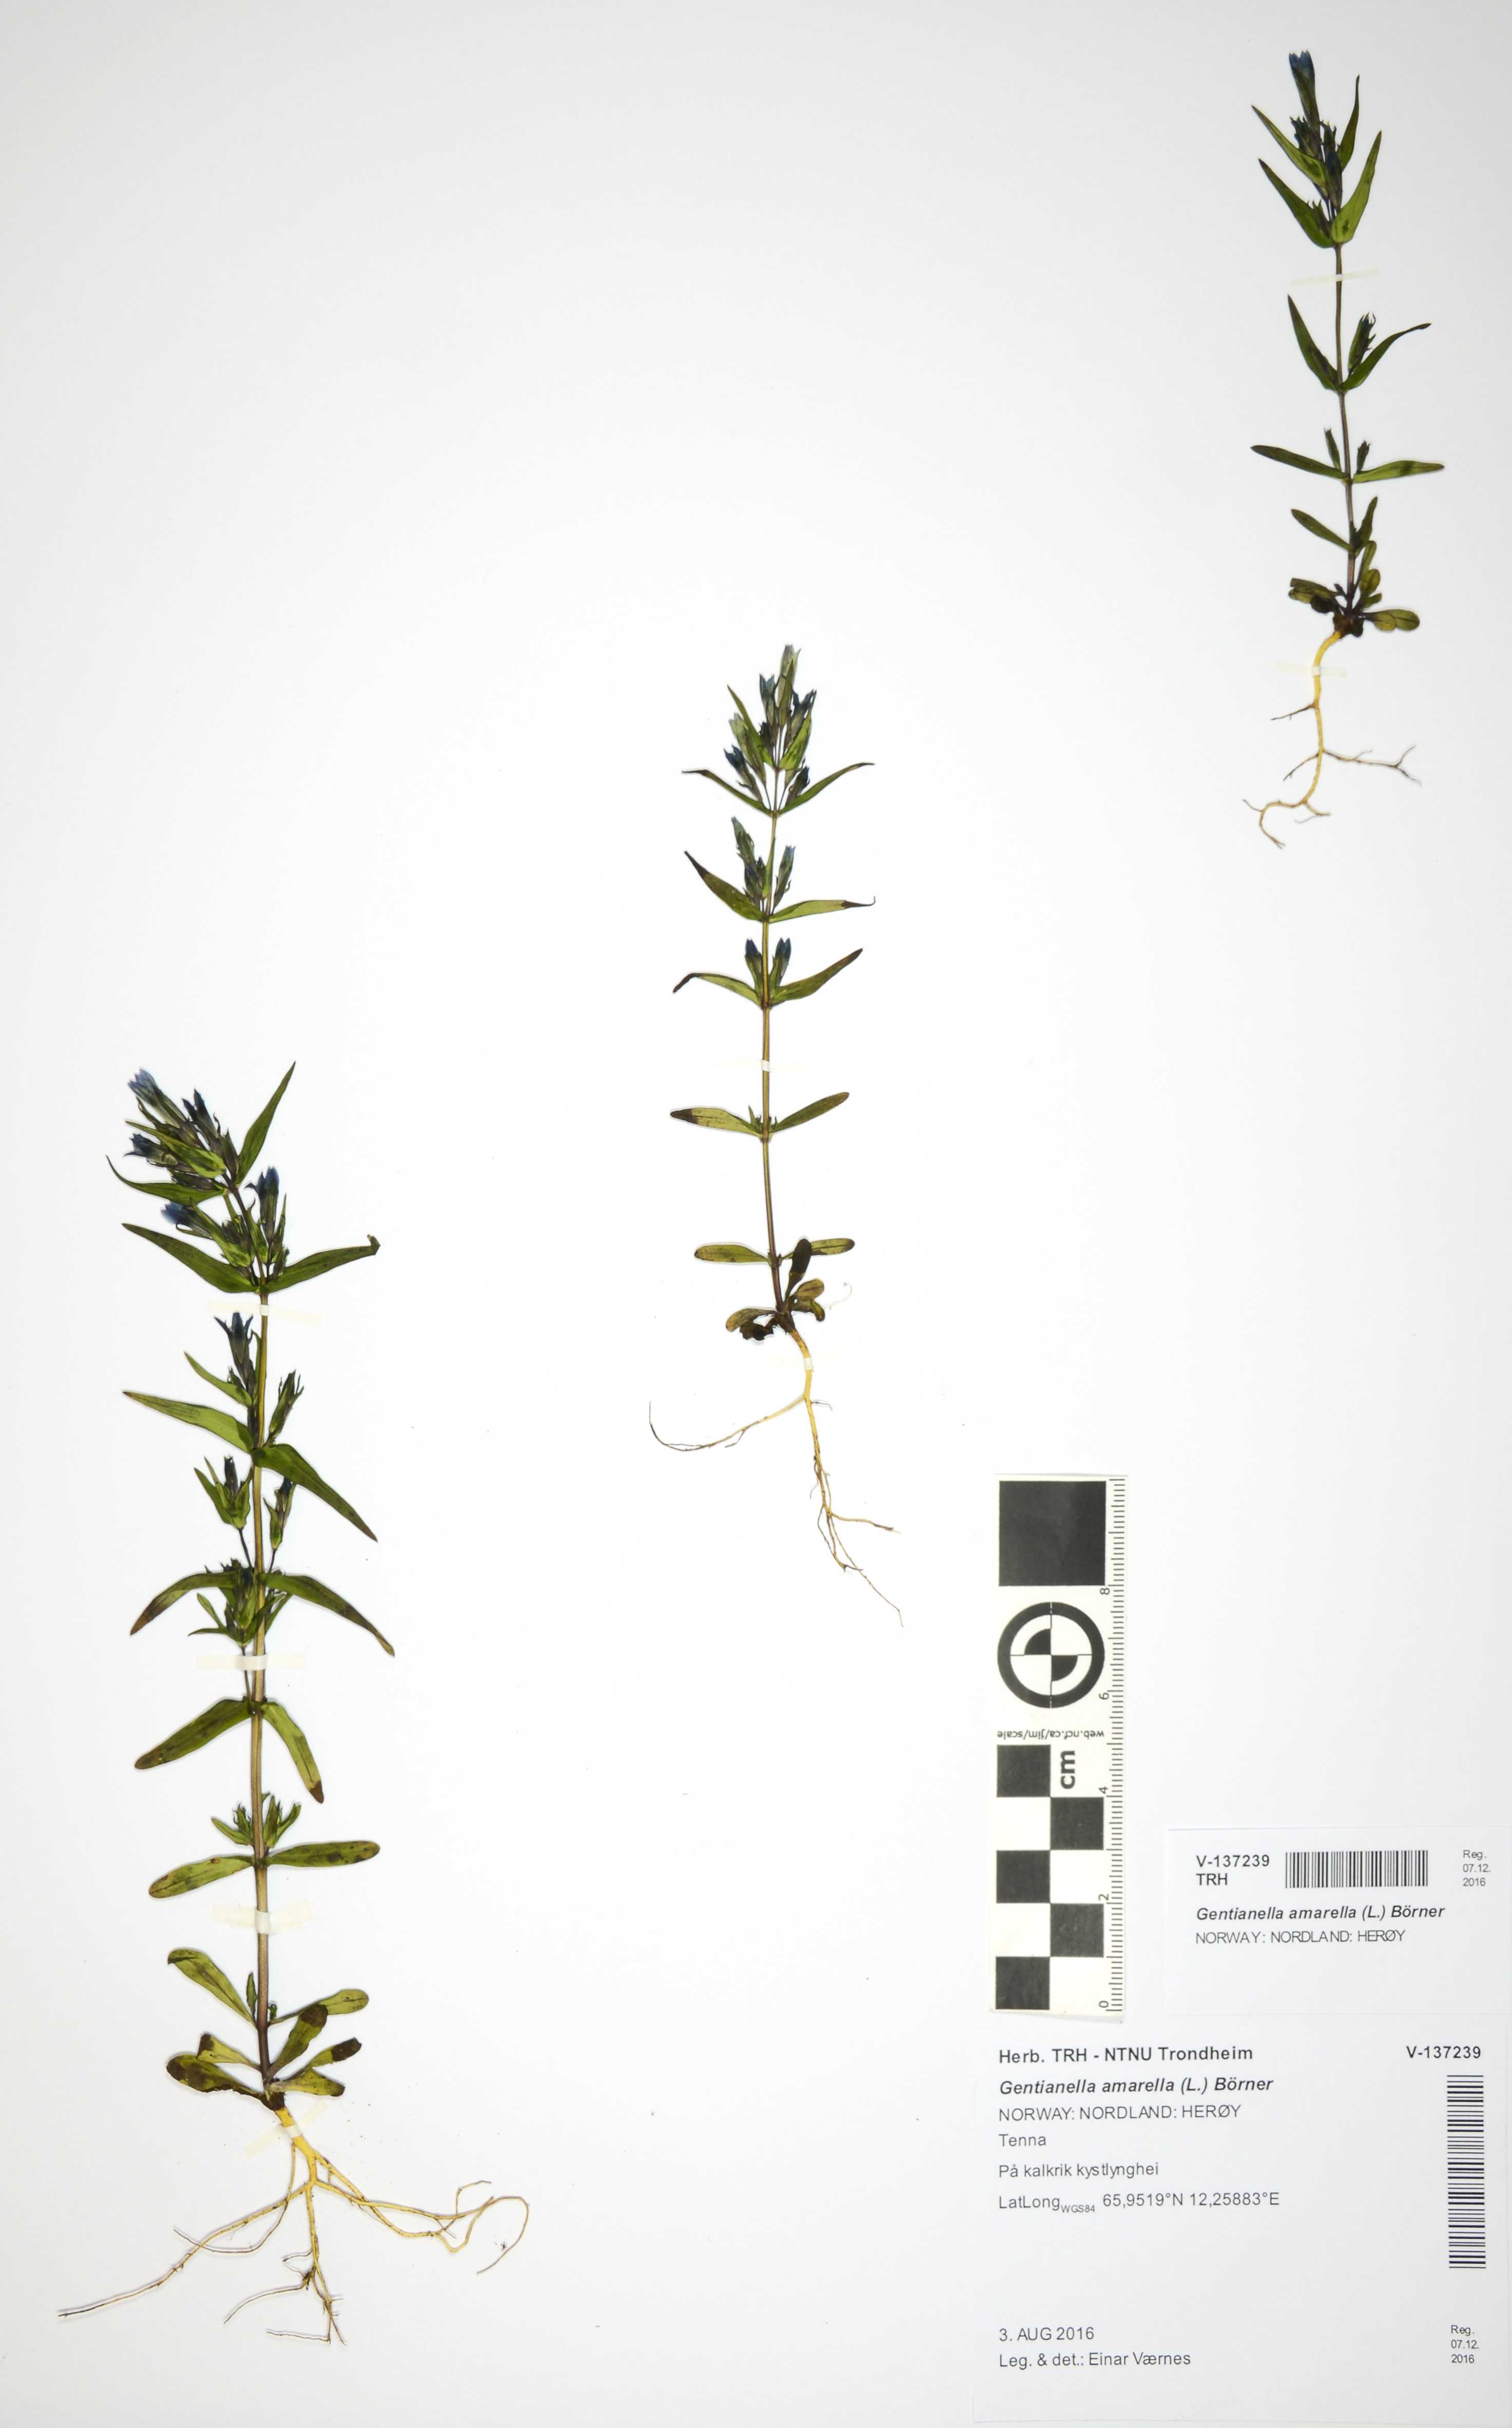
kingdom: Plantae
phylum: Tracheophyta
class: Magnoliopsida
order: Gentianales
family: Gentianaceae
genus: Gentianella
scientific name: Gentianella amarella
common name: Autumn gentian
